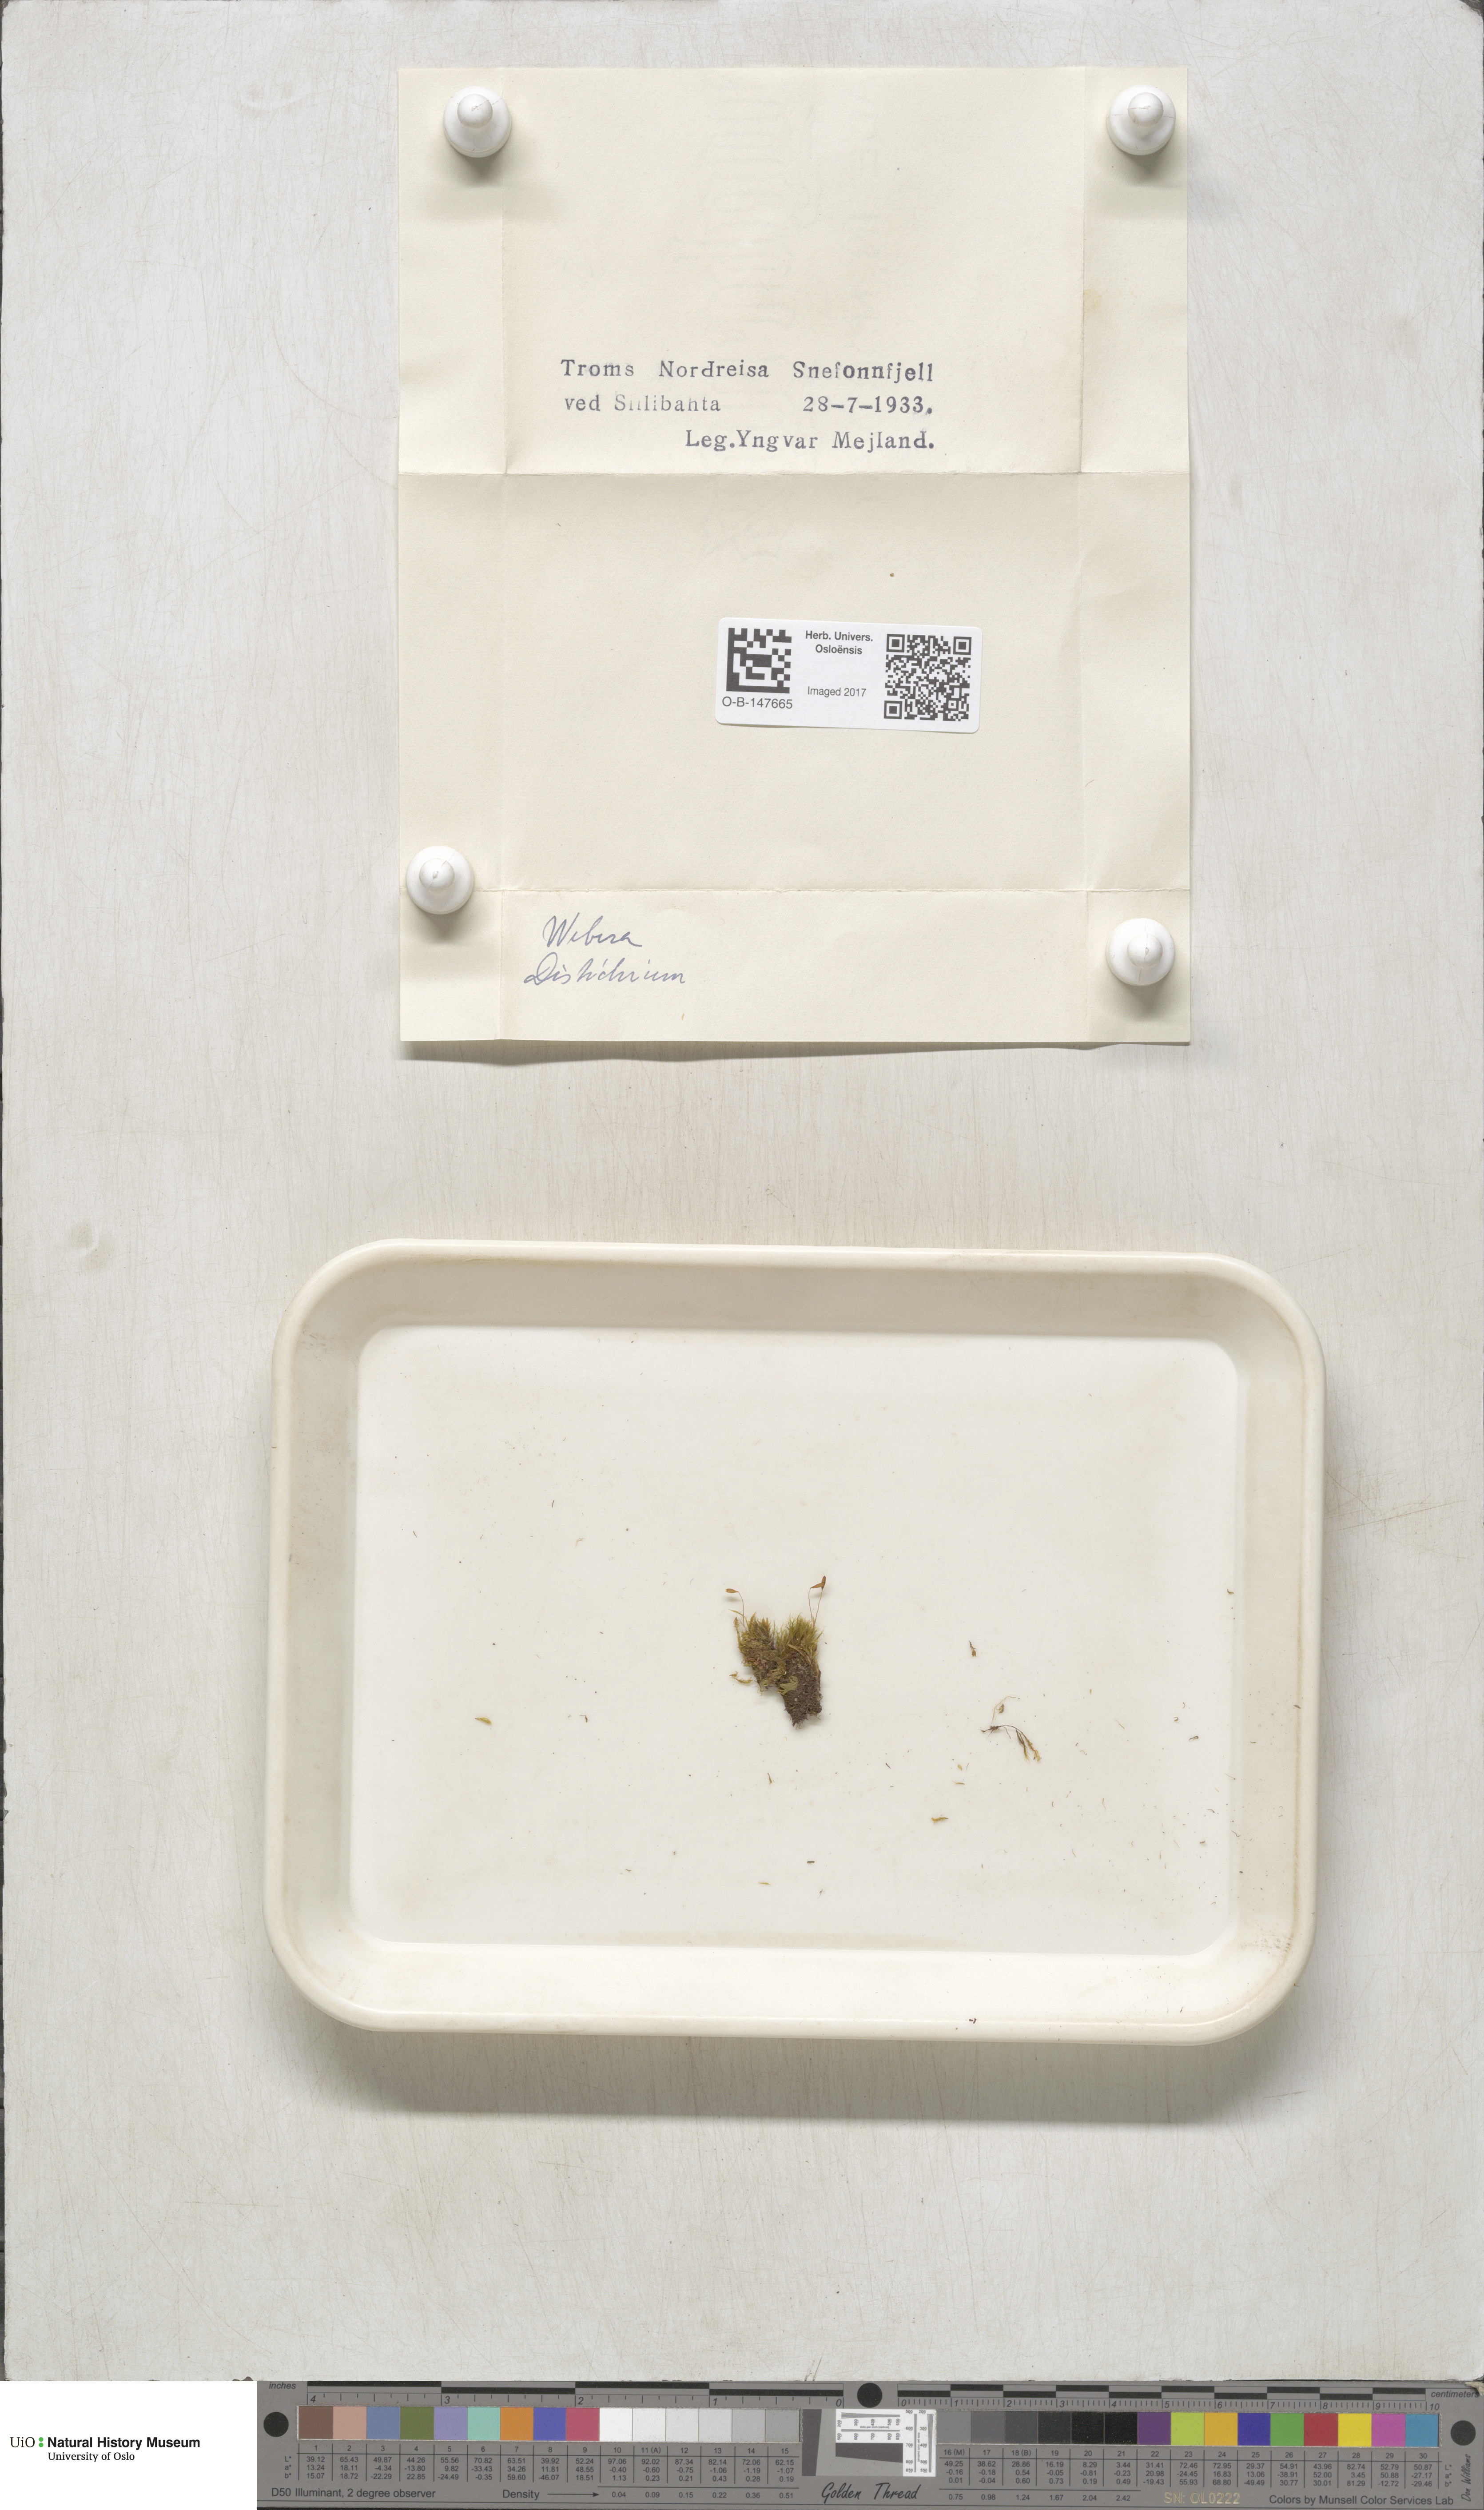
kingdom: Plantae
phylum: Bryophyta
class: Bryopsida
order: Bryales
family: Mniaceae
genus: Pohlia
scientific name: Pohlia
